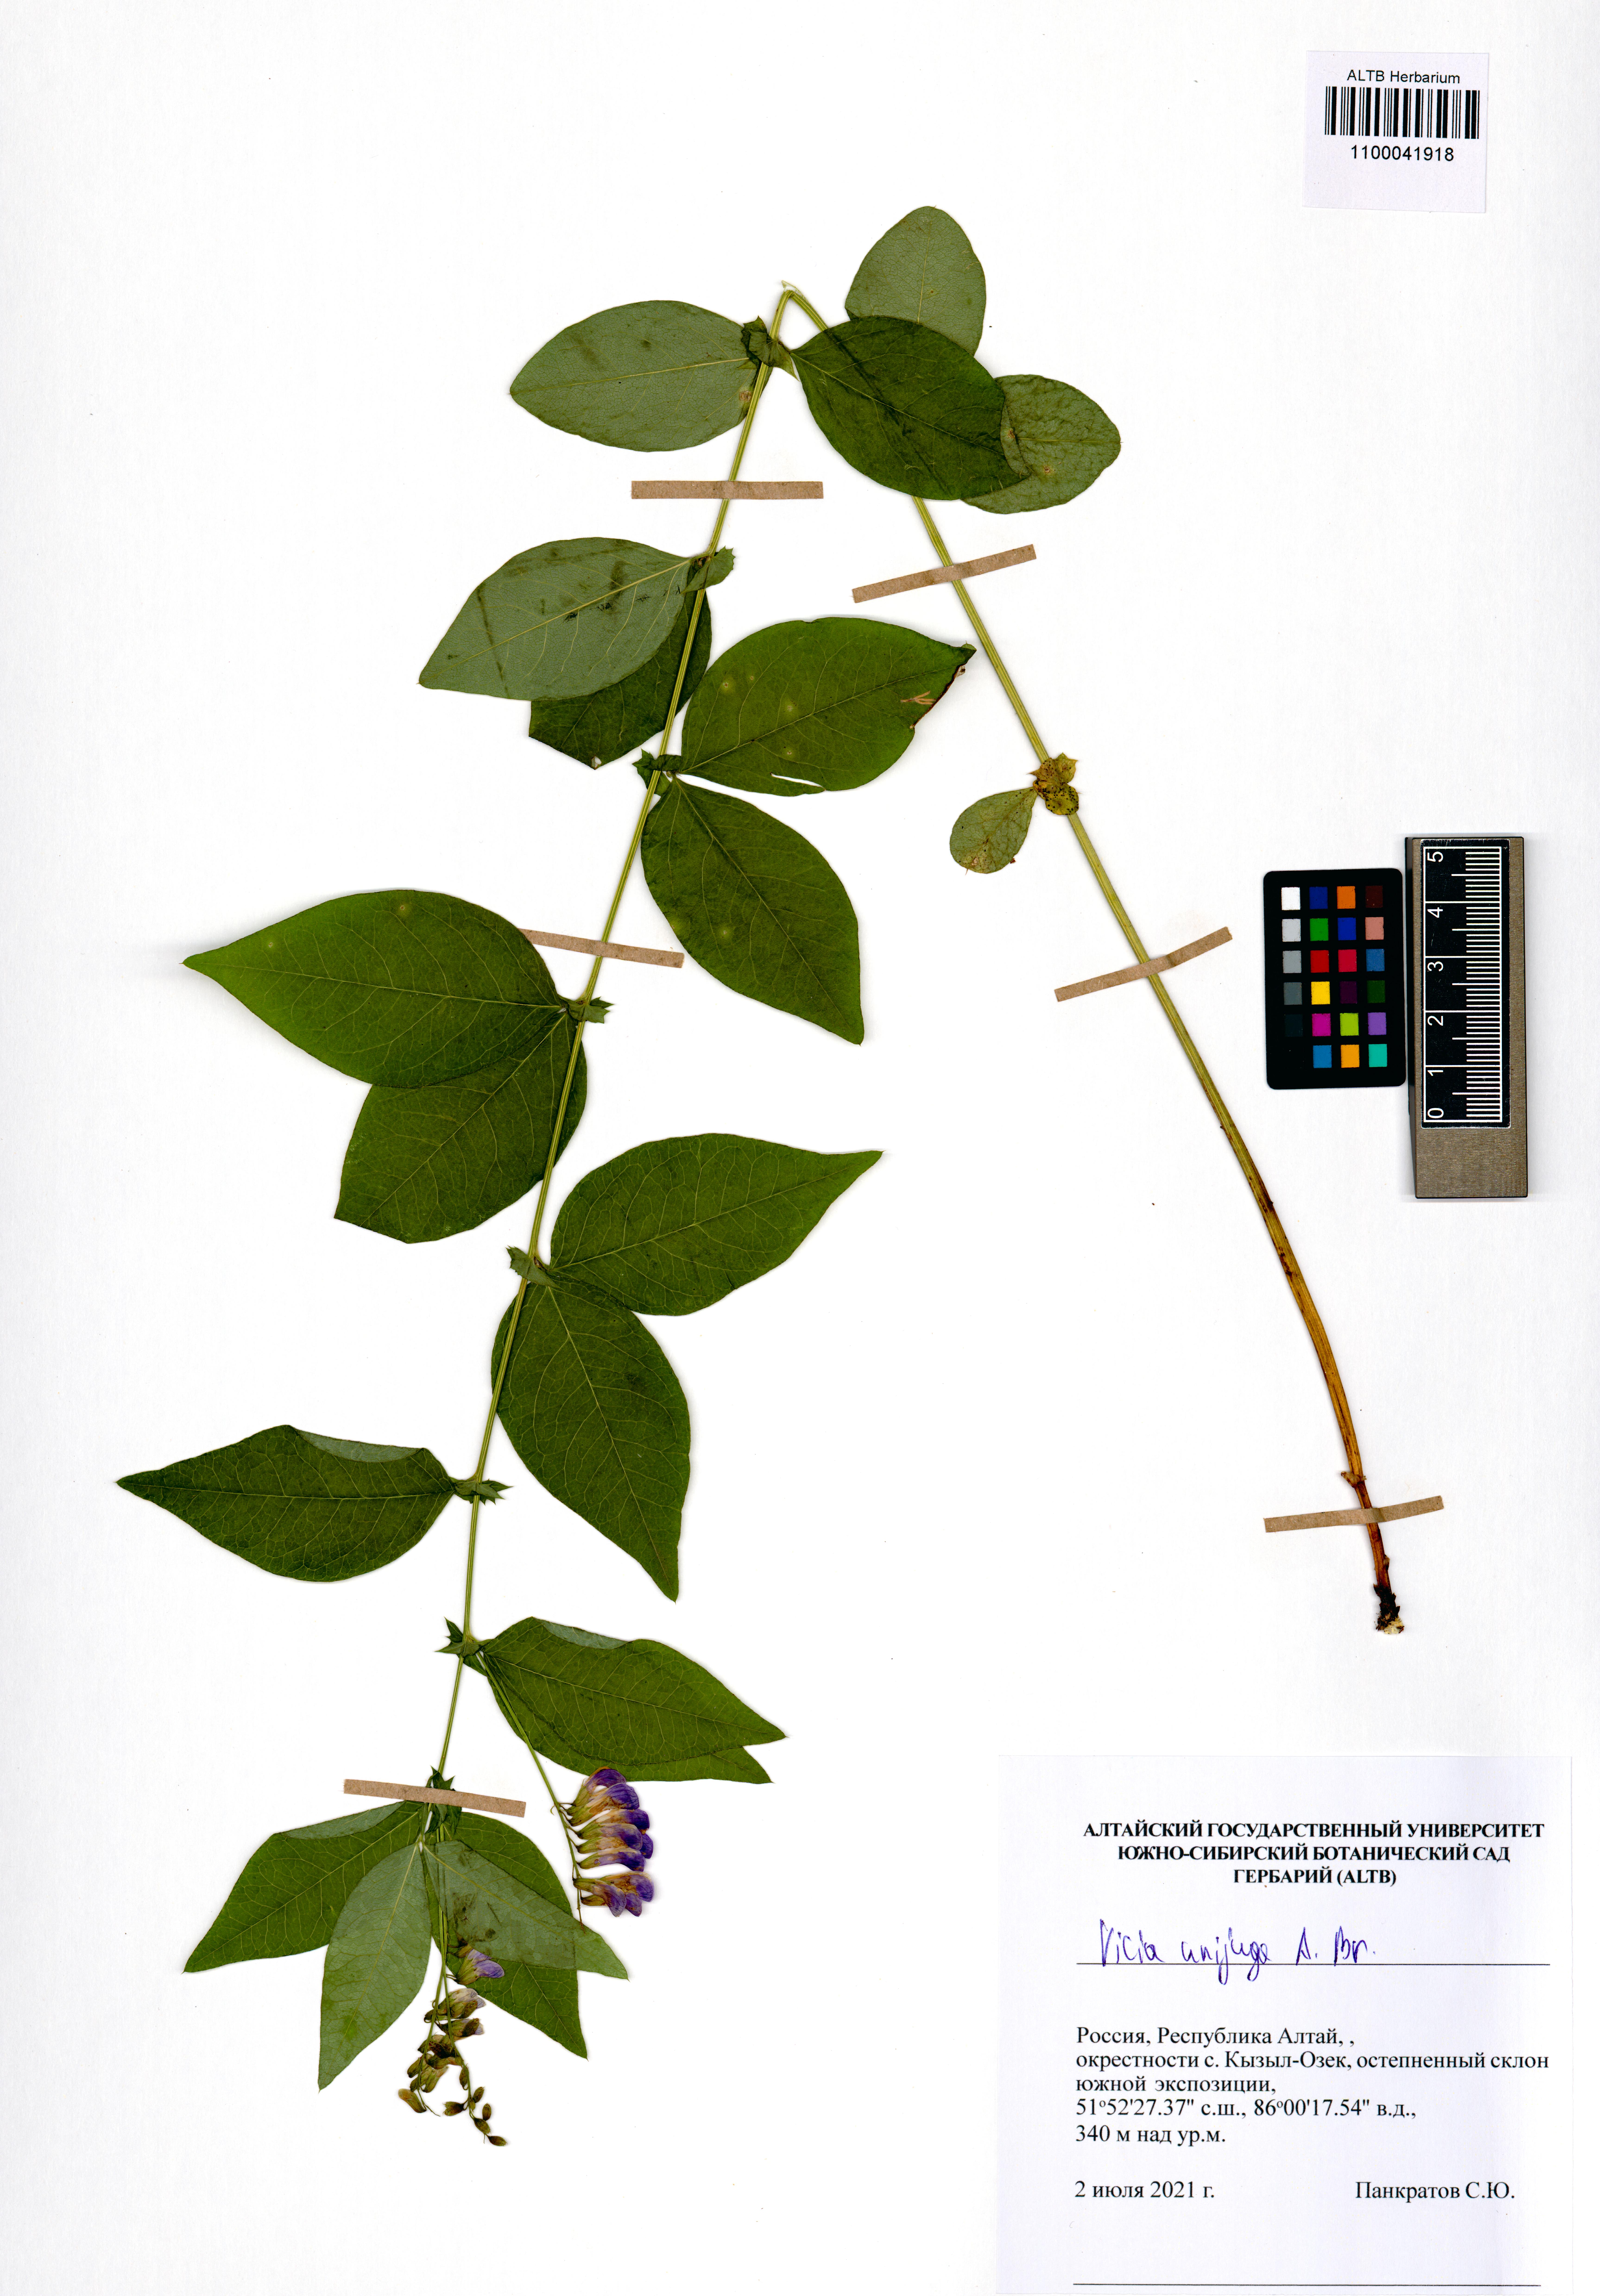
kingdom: Plantae
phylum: Tracheophyta
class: Magnoliopsida
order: Fabales
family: Fabaceae
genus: Vicia
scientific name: Vicia unijuga
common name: Two-leaf vetch
